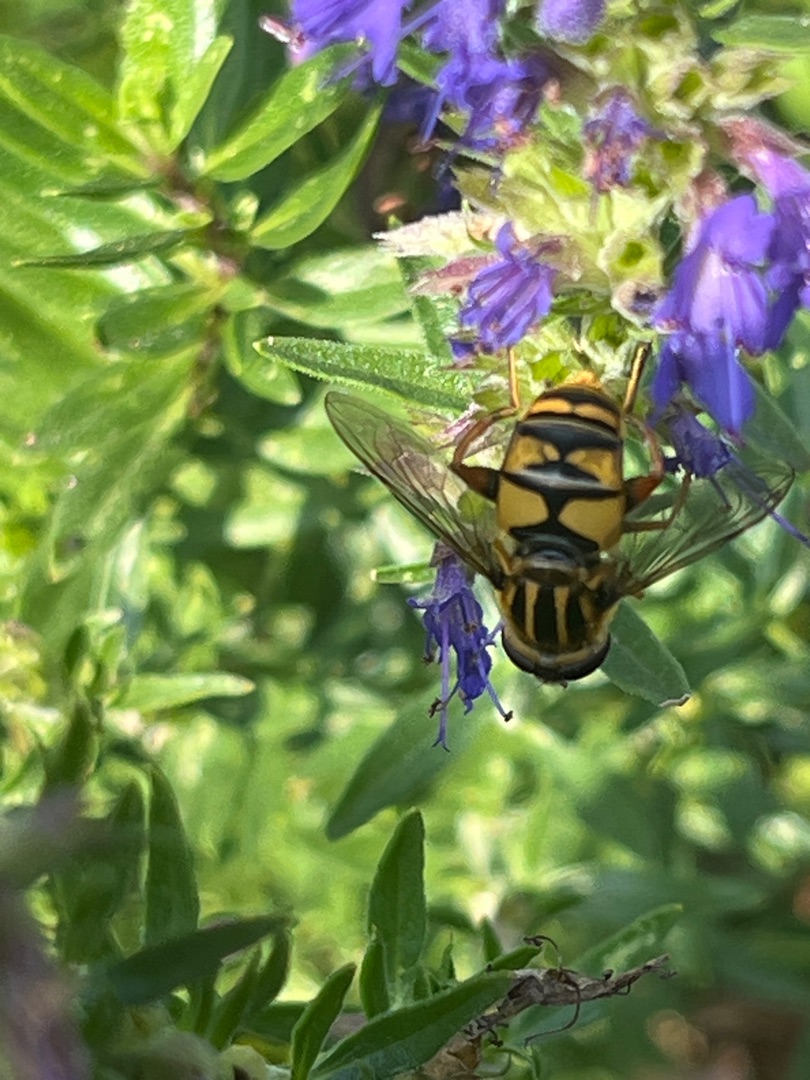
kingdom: Animalia
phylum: Arthropoda
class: Insecta
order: Diptera
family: Syrphidae
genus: Helophilus
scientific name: Helophilus pendulus
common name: Almindelig sumpsvirreflue
